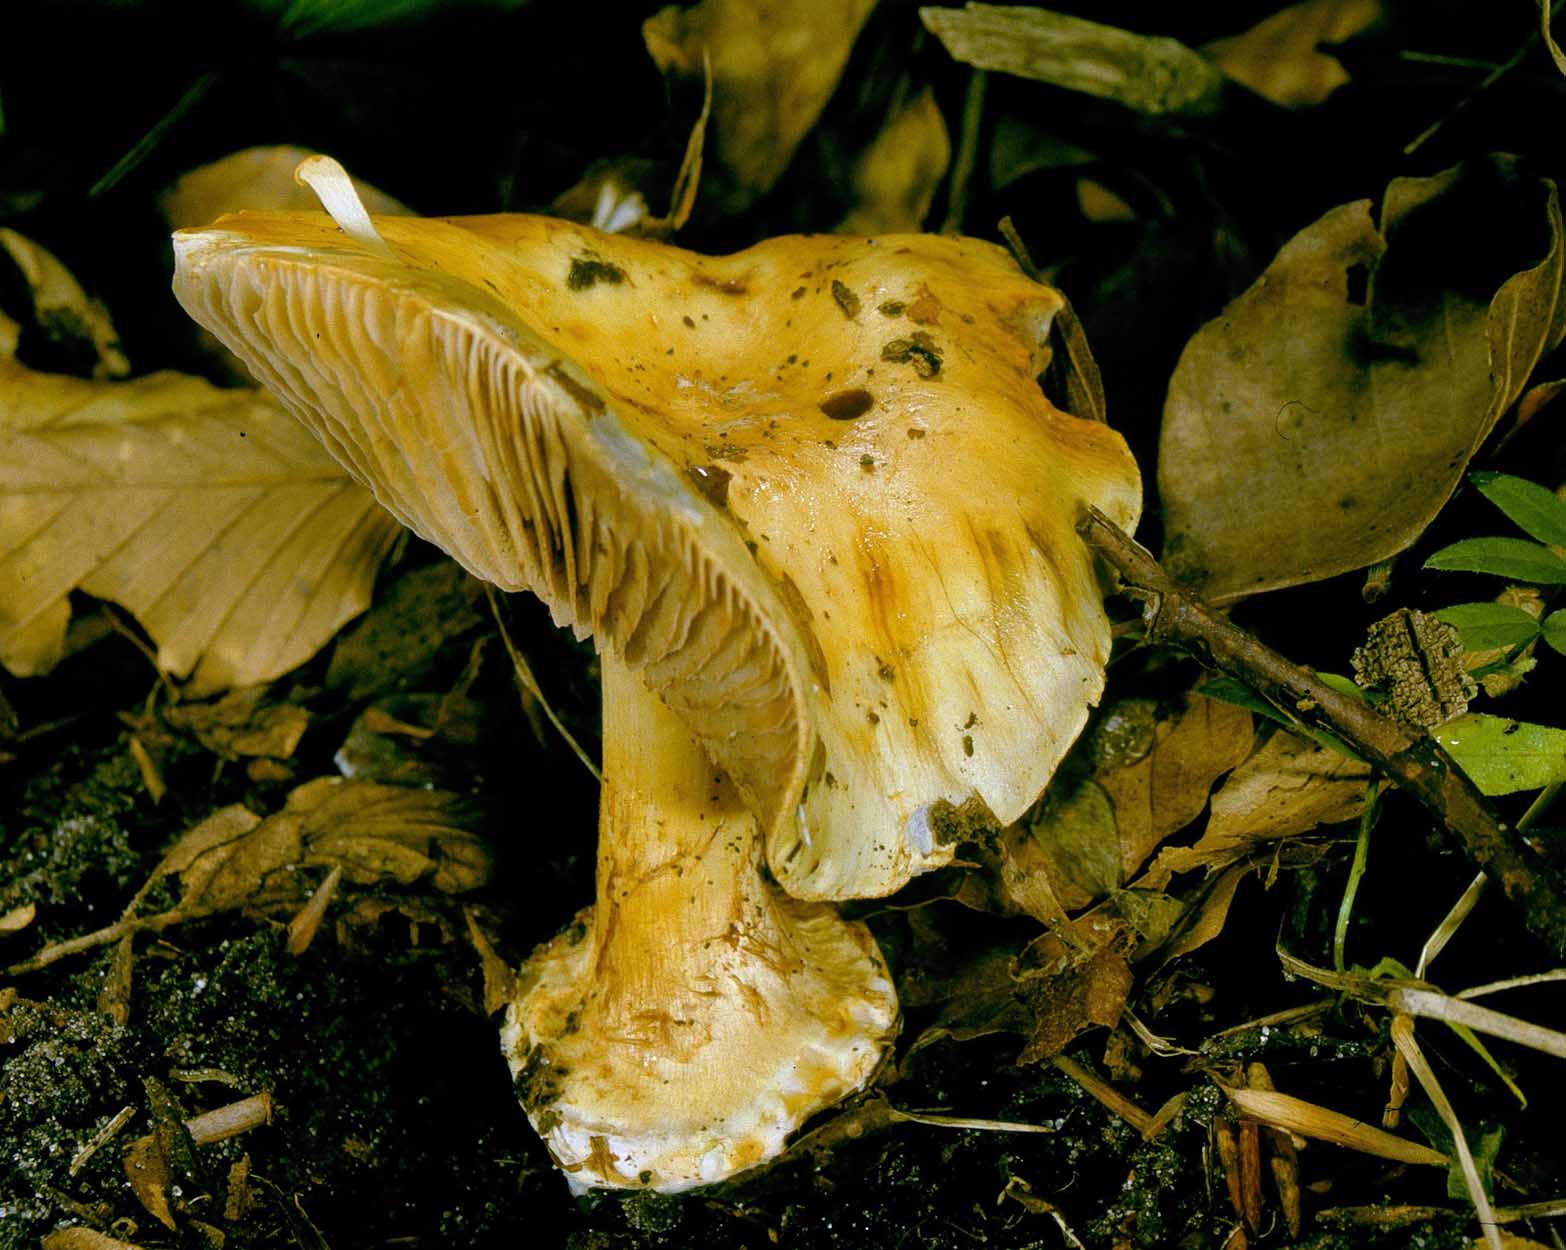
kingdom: Fungi
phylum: Basidiomycota
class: Agaricomycetes
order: Agaricales
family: Cortinariaceae
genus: Cortinarius
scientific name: Cortinarius foetens
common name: stribet slørhat
